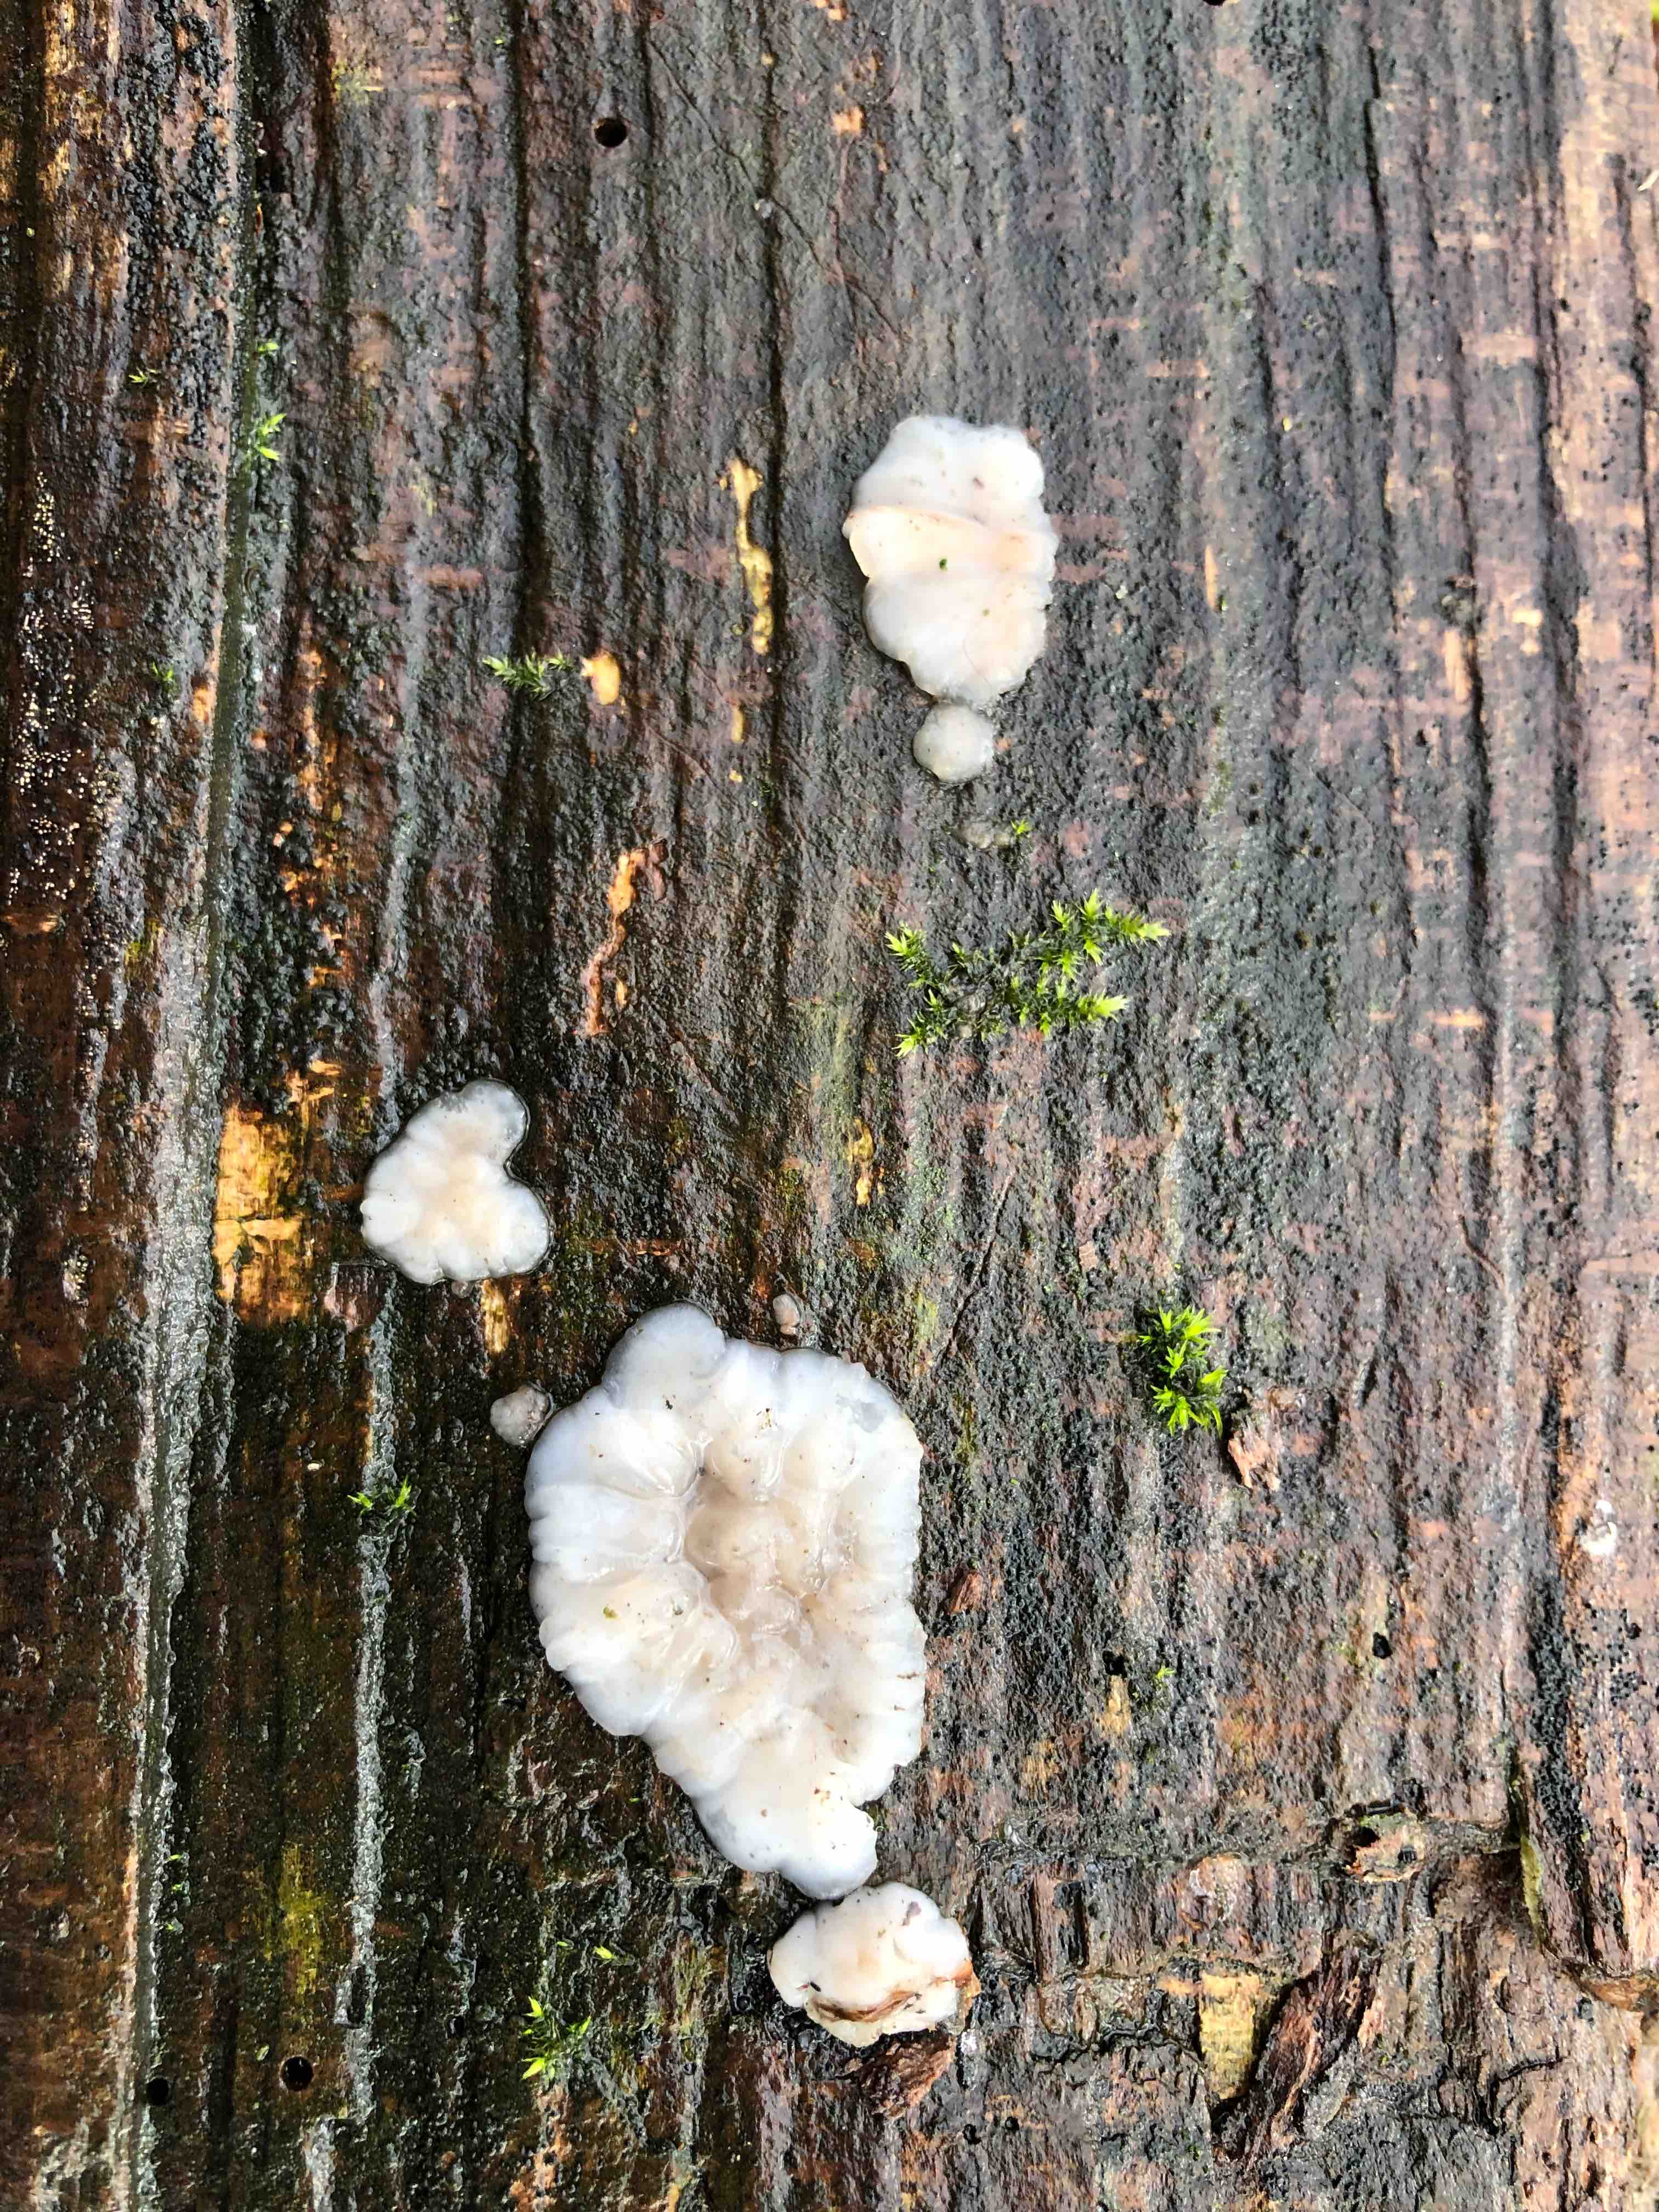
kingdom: Fungi
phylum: Basidiomycota
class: Agaricomycetes
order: Auriculariales
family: Auriculariaceae
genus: Exidia
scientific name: Exidia thuretiana
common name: hvidlig bævretop
